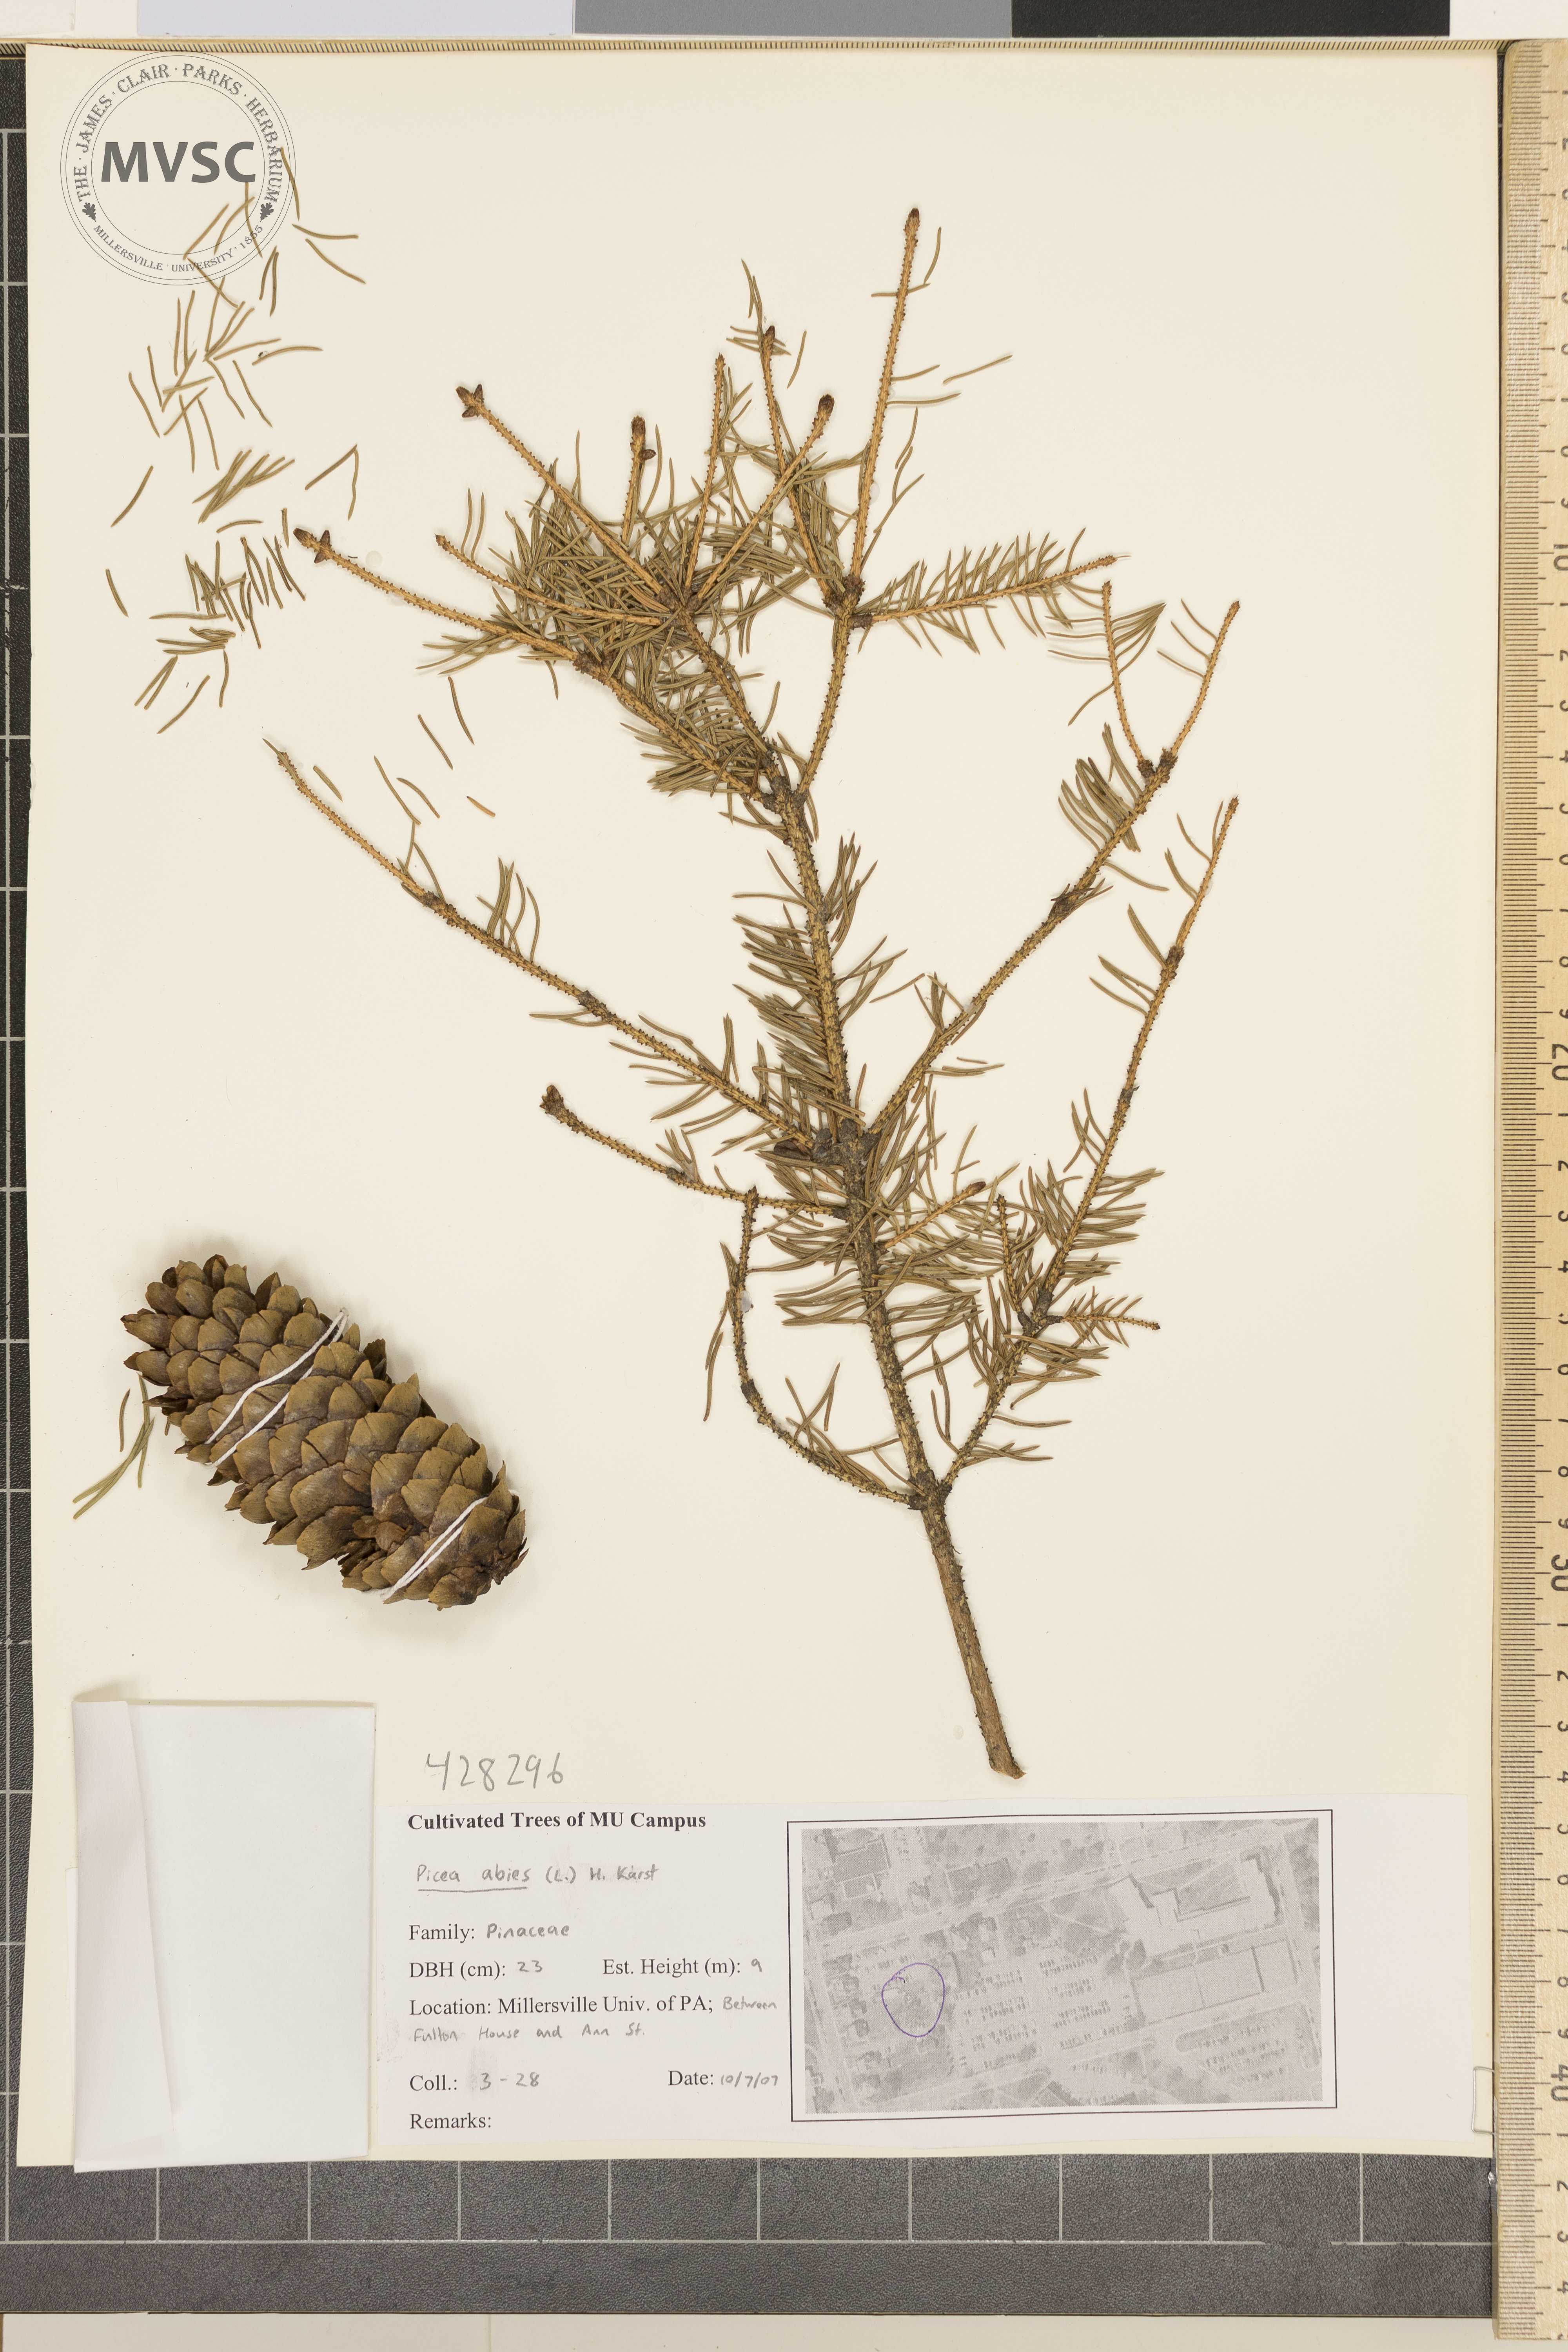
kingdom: Plantae
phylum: Tracheophyta
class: Pinopsida
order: Pinales
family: Pinaceae
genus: Picea
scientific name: Picea abies
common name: Norway spruce
